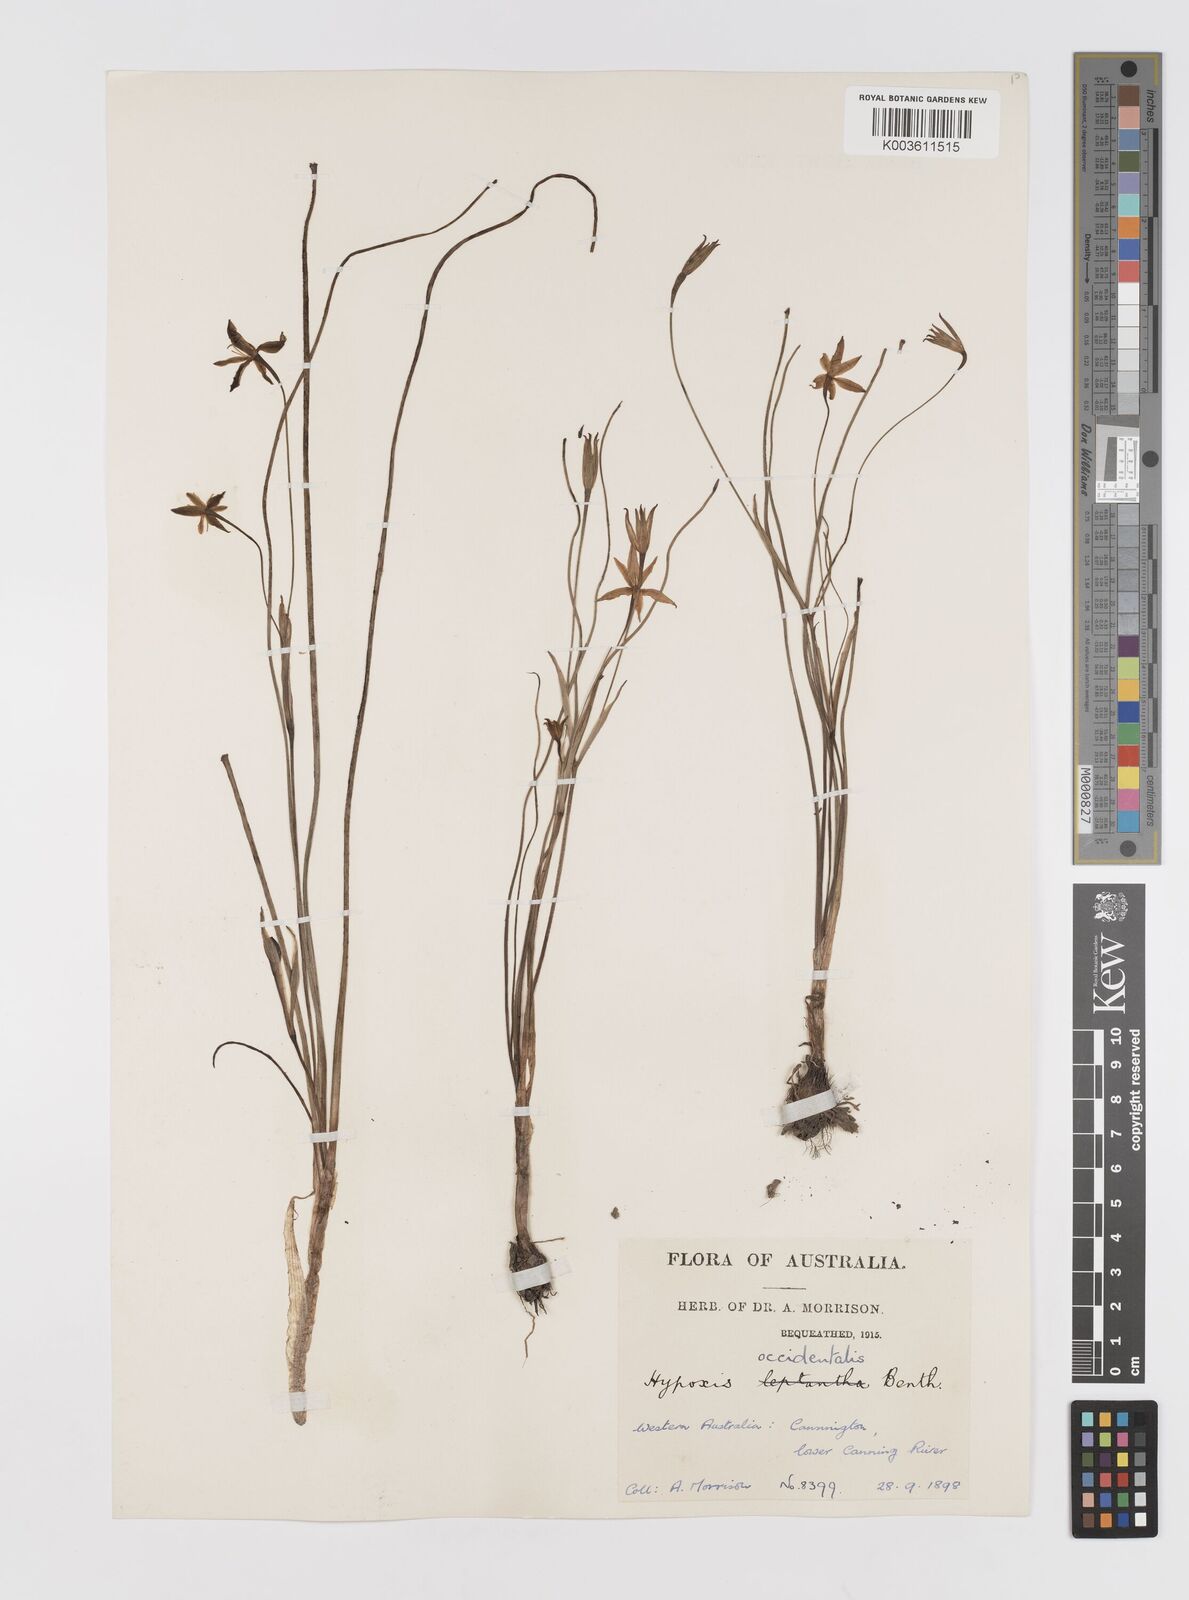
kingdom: Plantae
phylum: Tracheophyta
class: Liliopsida
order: Asparagales
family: Hypoxidaceae
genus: Pauridia
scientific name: Pauridia occidentalis
